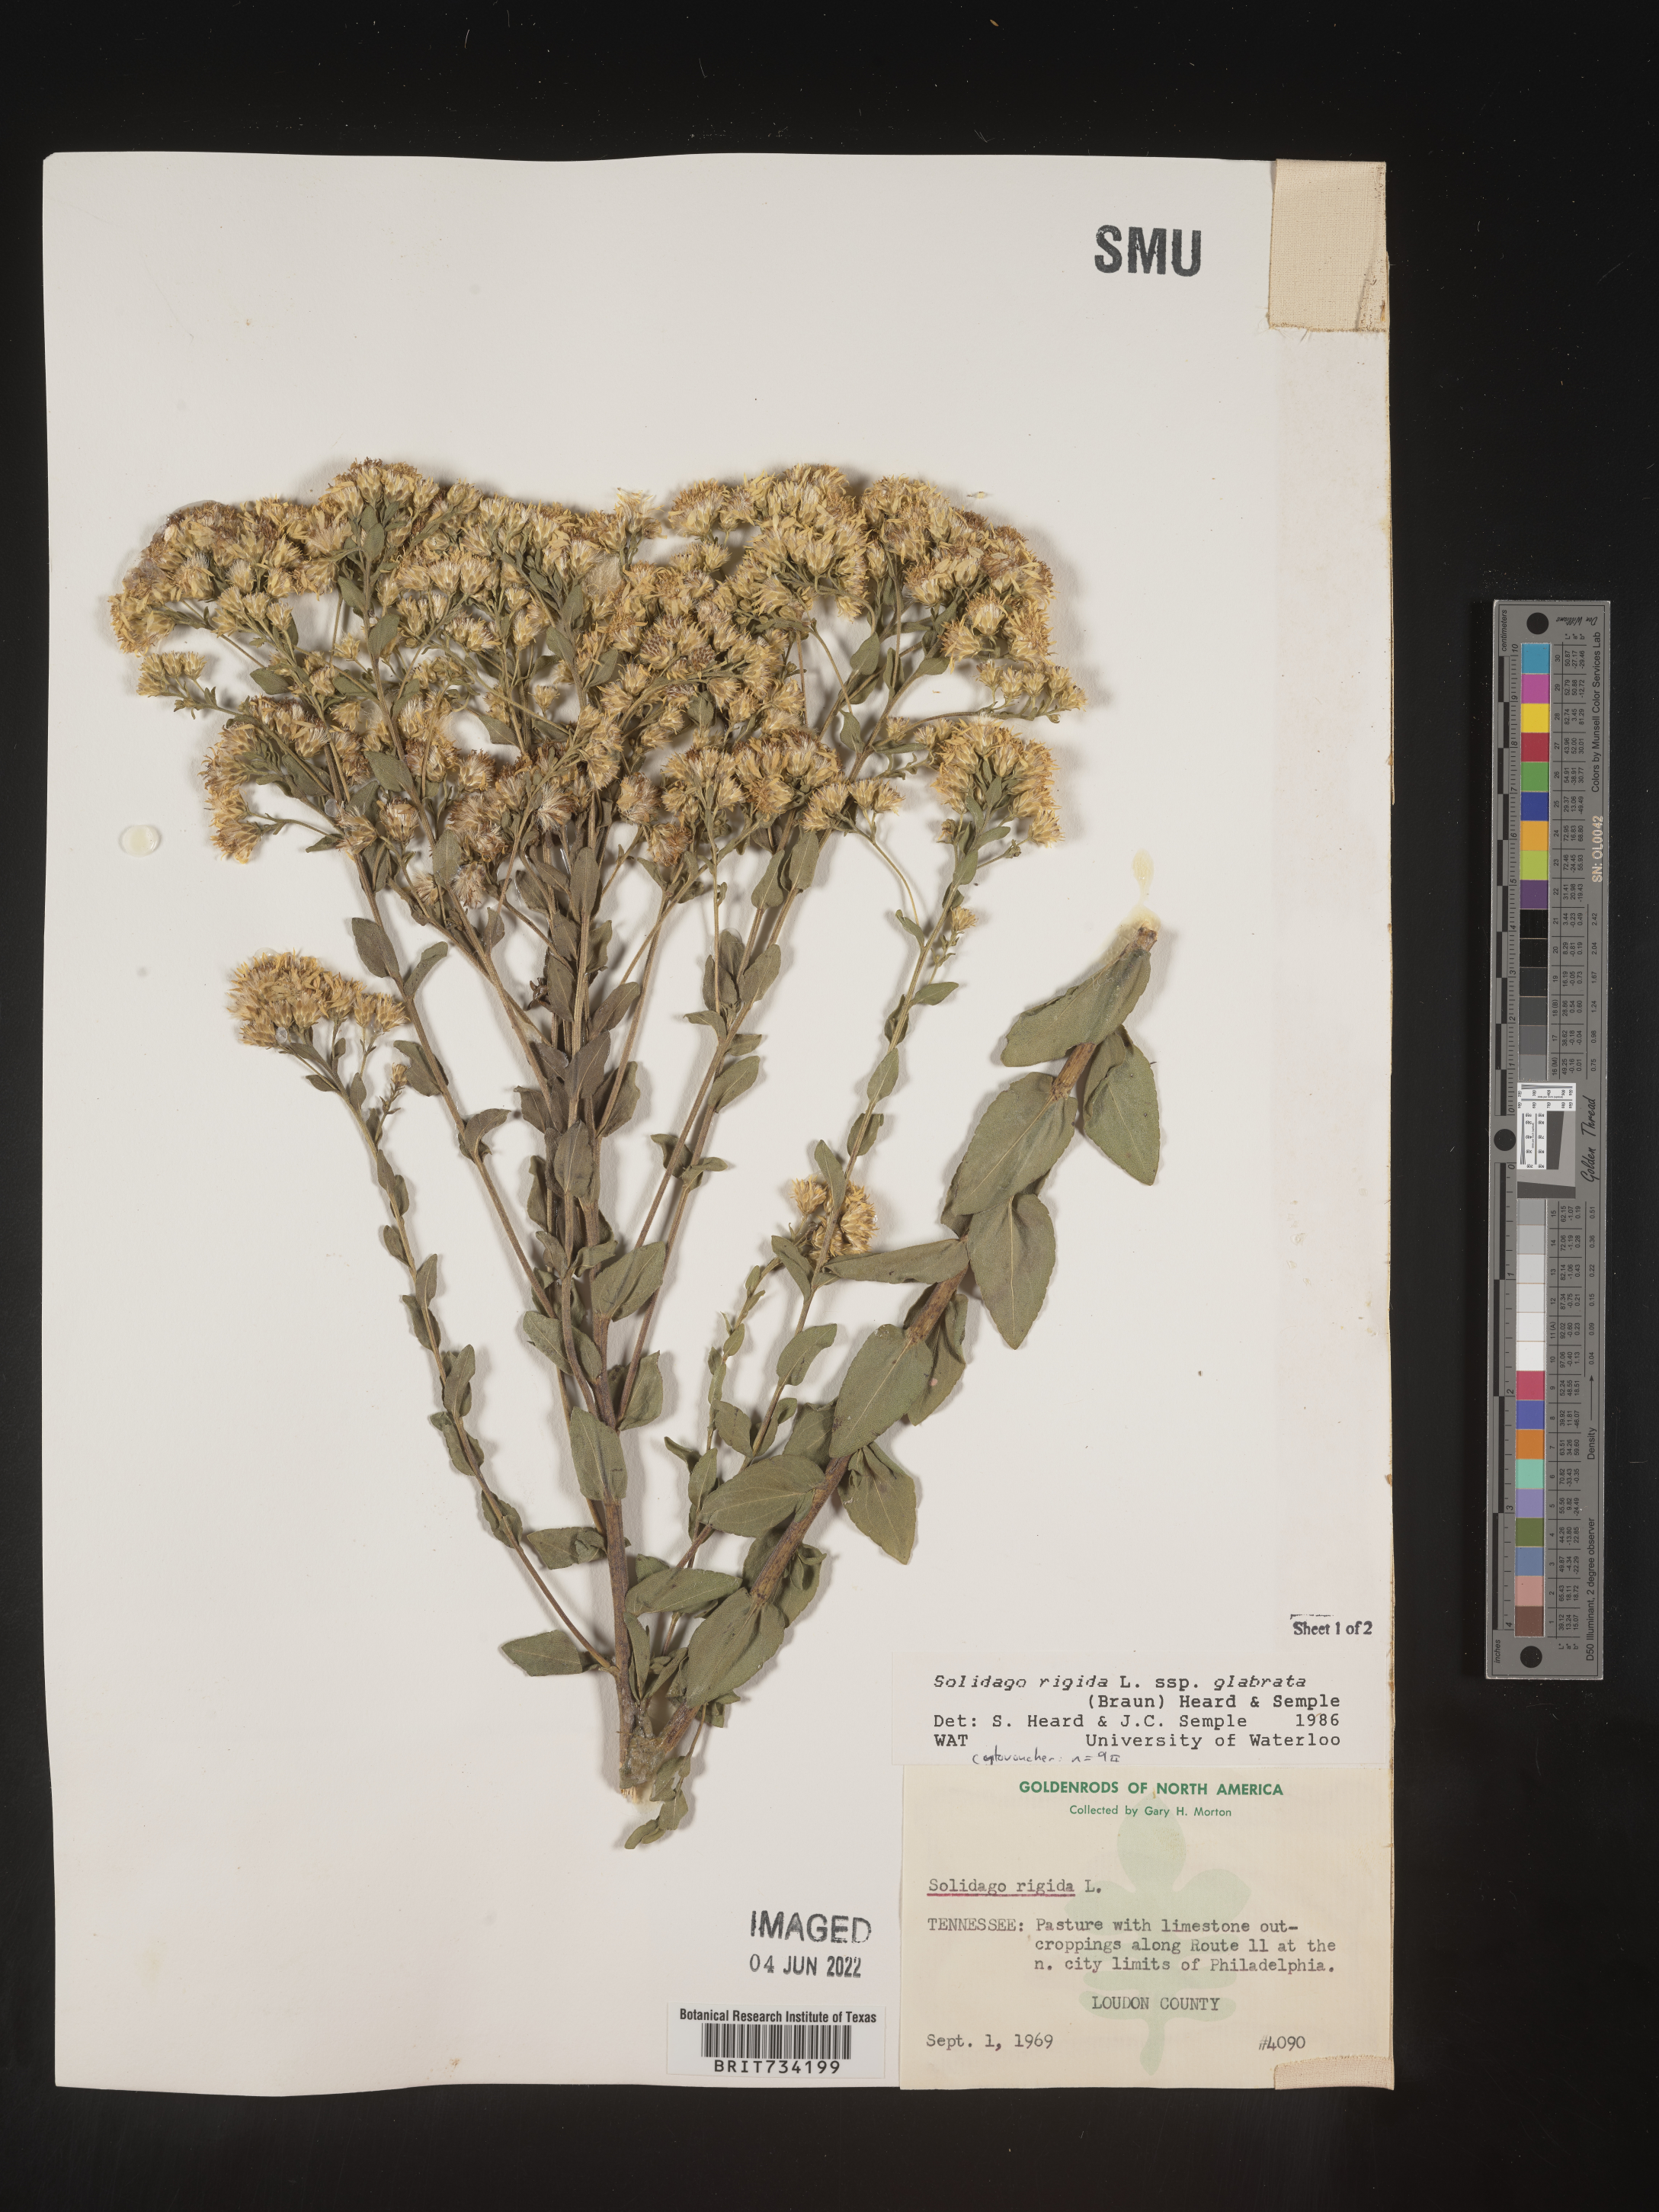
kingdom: Plantae
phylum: Tracheophyta
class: Magnoliopsida
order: Asterales
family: Asteraceae
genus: Solidago
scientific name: Solidago rigida
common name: Rigid goldenrod
